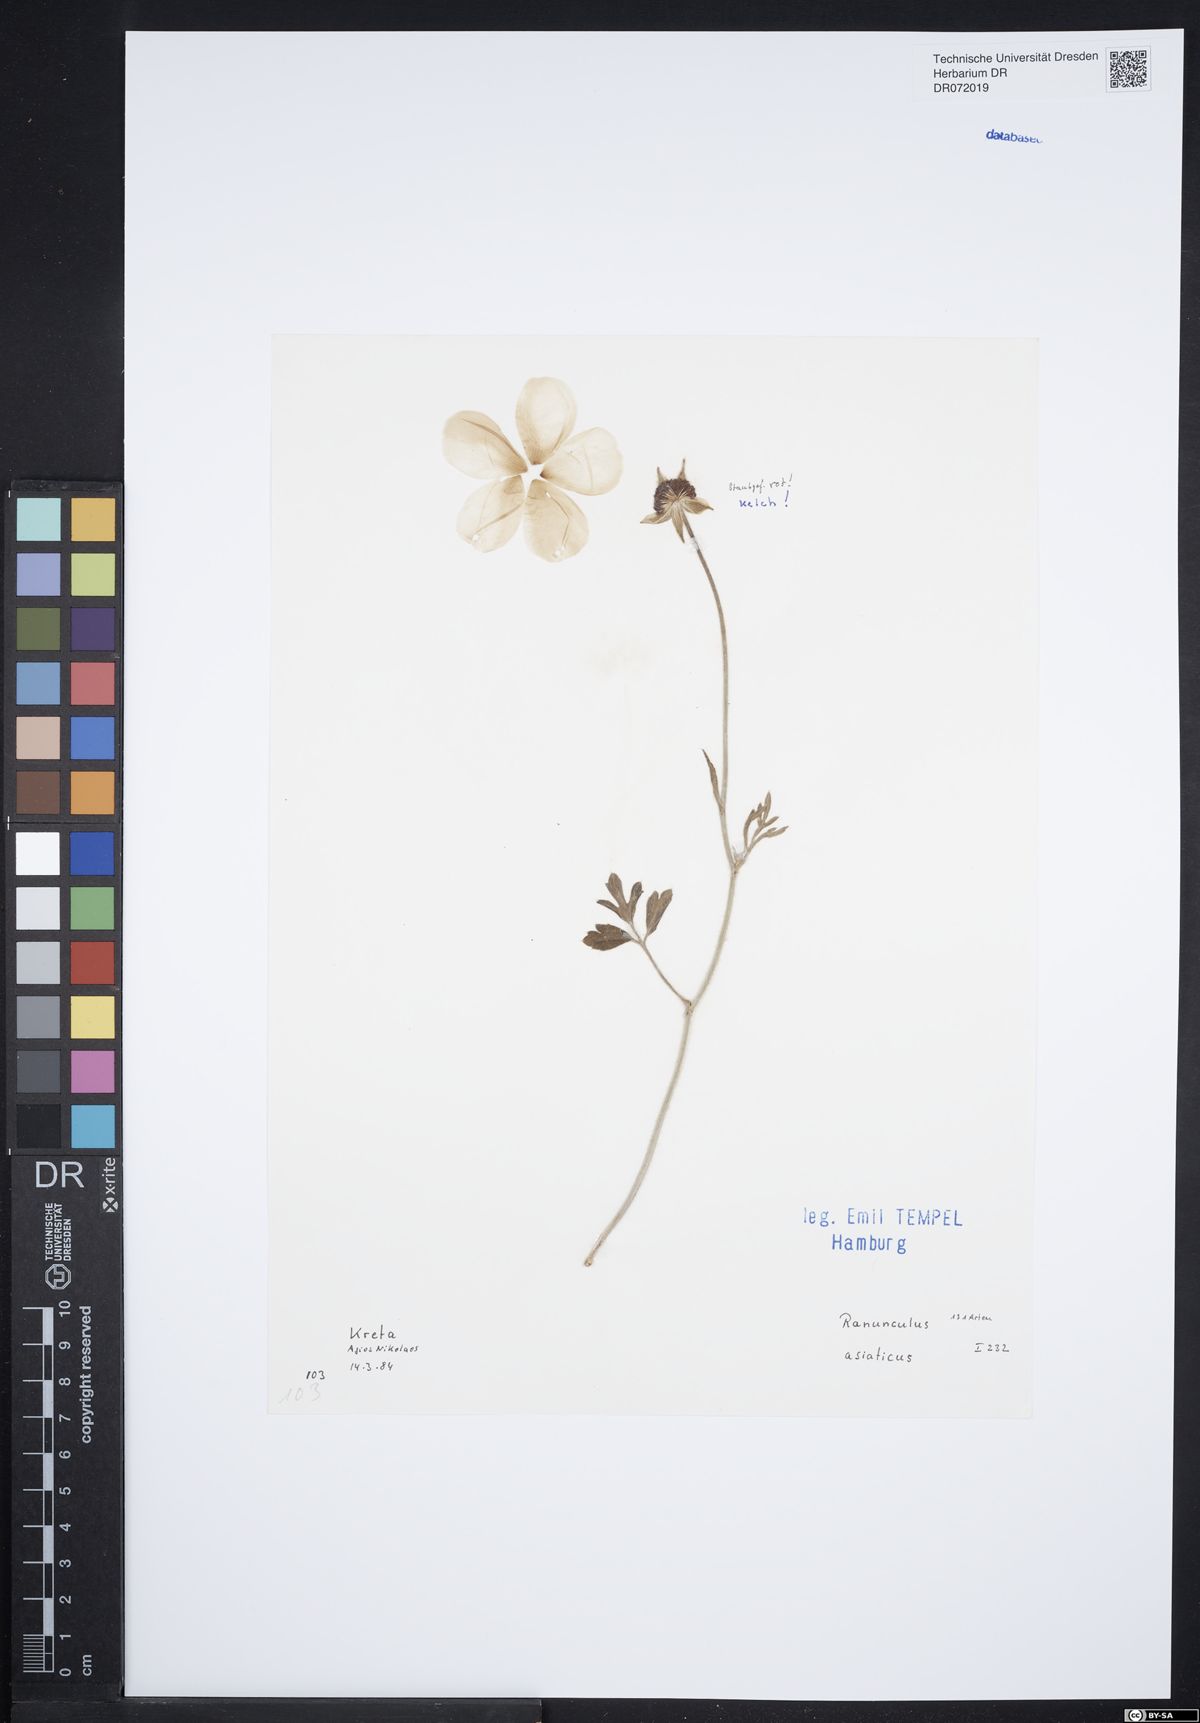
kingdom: Plantae
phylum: Tracheophyta
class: Magnoliopsida
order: Ranunculales
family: Ranunculaceae
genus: Ranunculus
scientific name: Ranunculus asiaticus
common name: Persian buttercup
